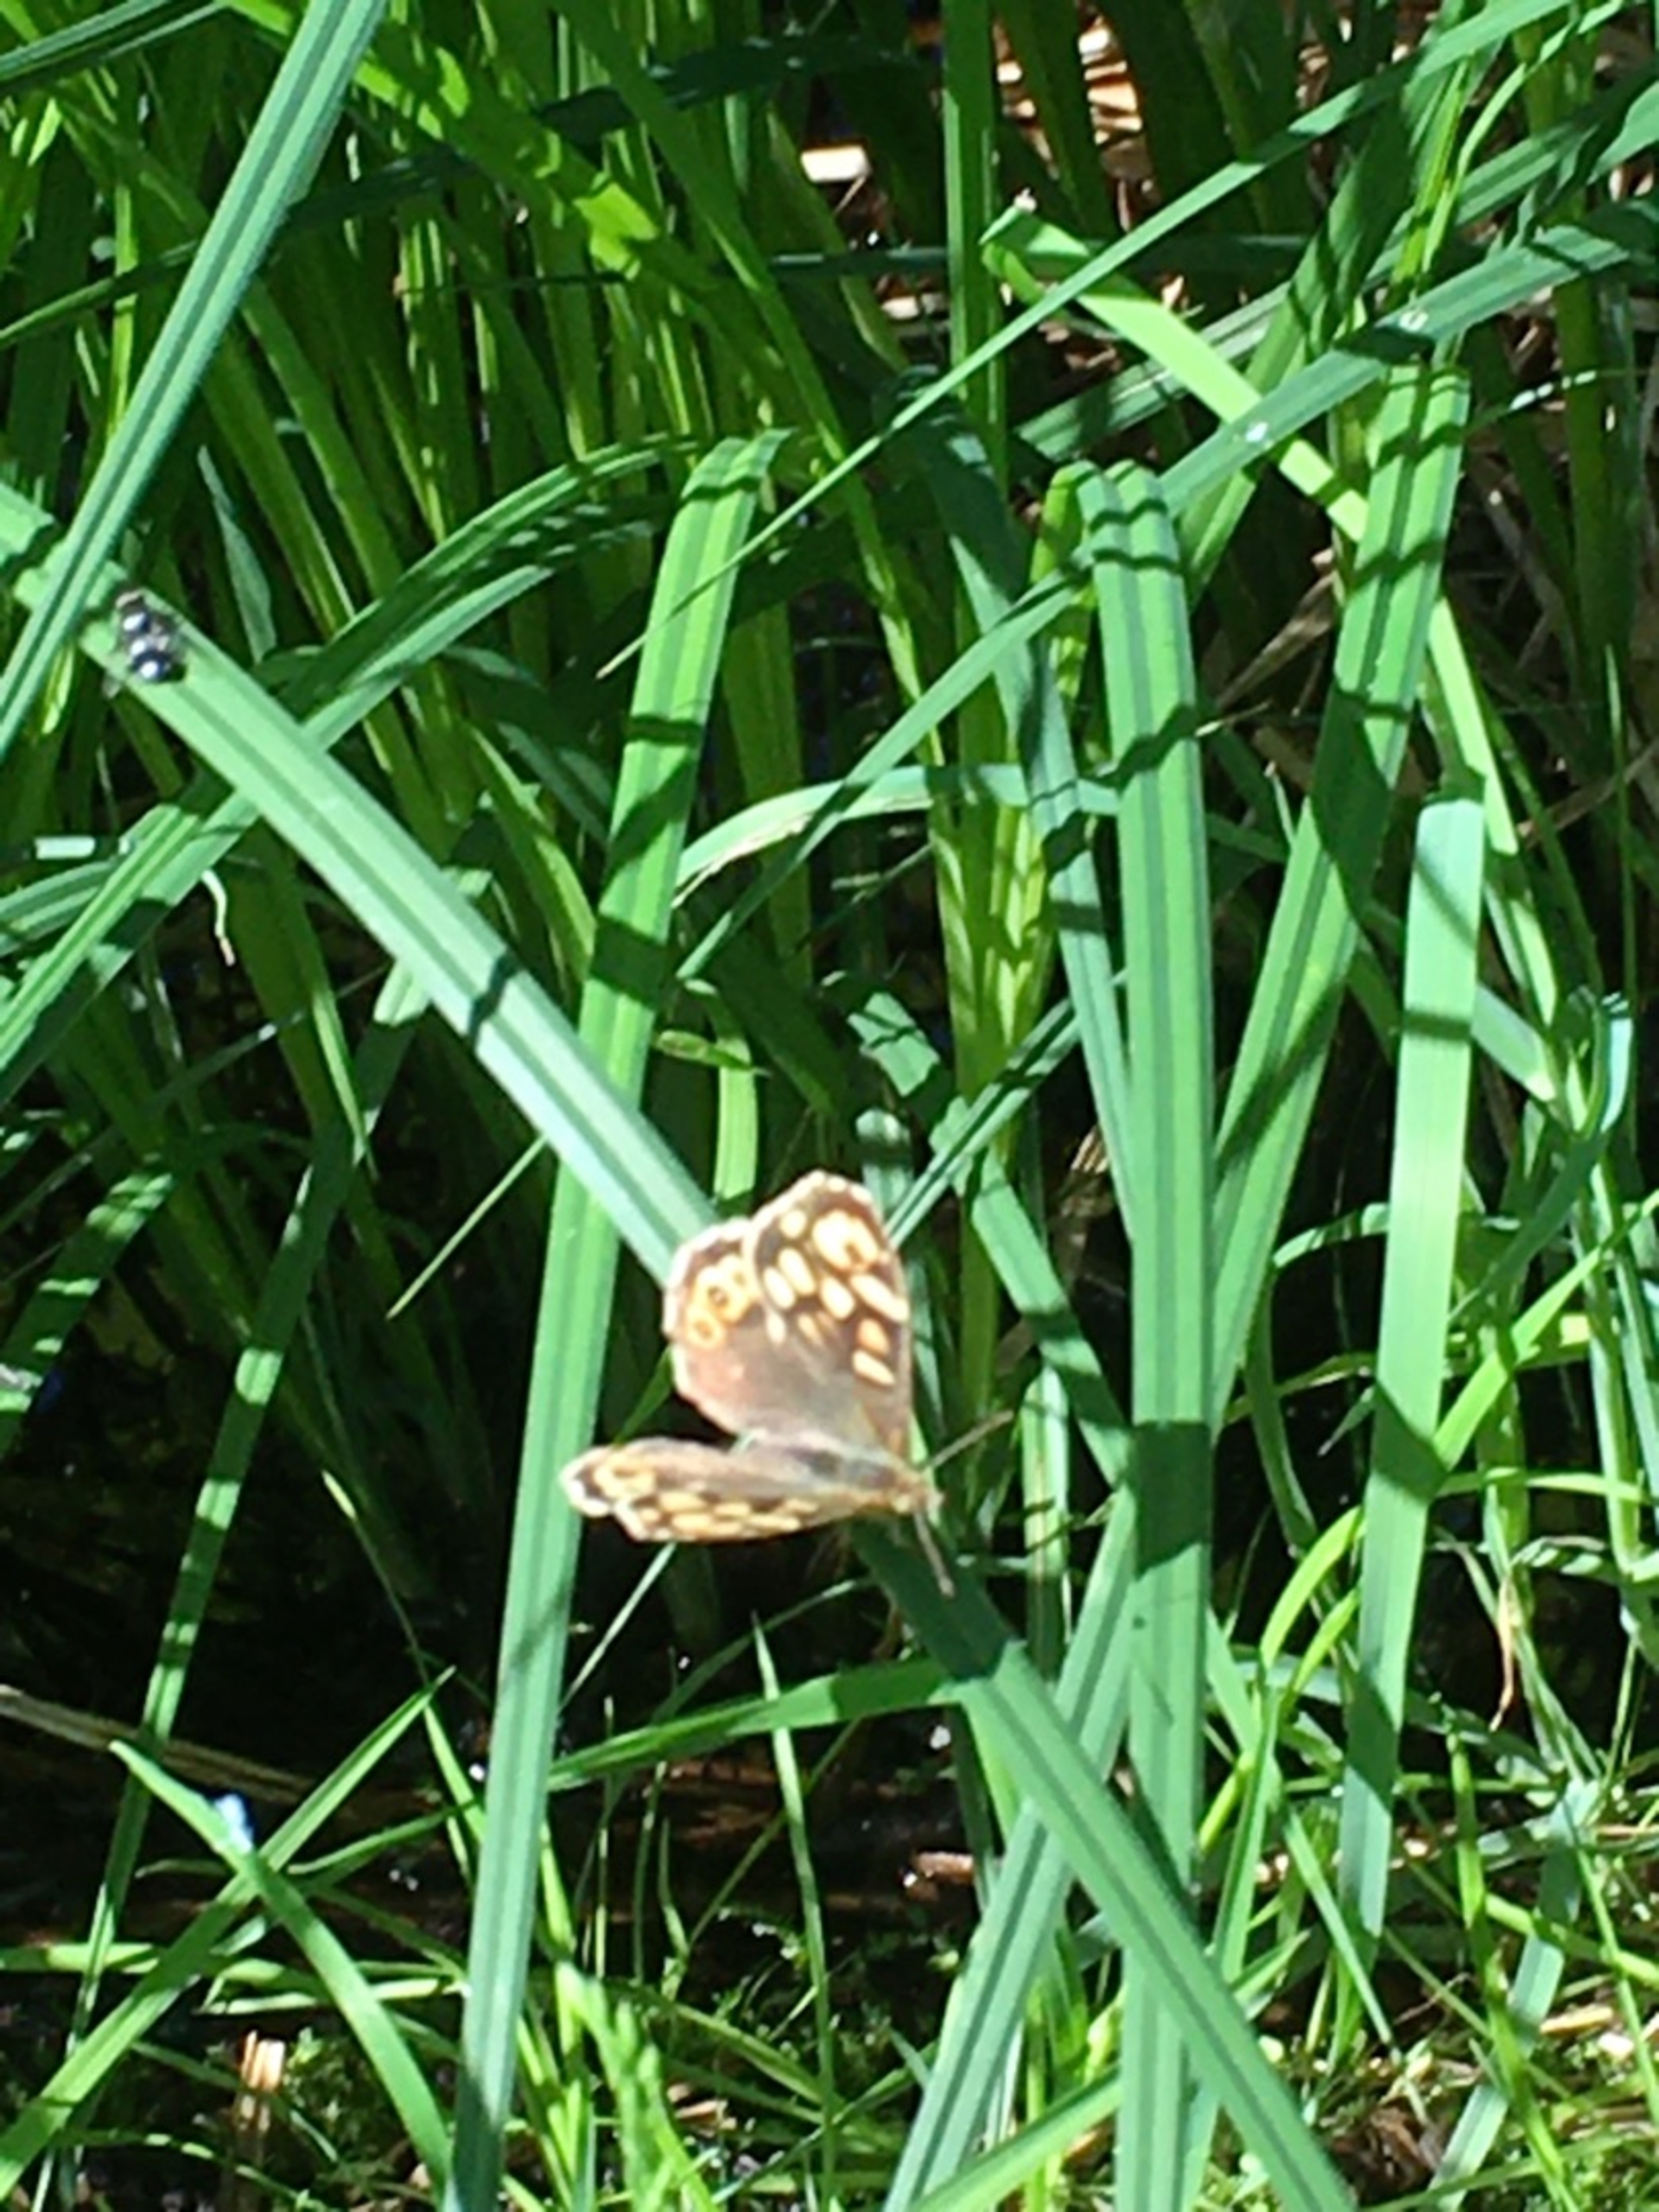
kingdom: Animalia
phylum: Arthropoda
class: Insecta
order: Lepidoptera
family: Nymphalidae
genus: Pararge
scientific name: Pararge aegeria
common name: Skovrandøje
